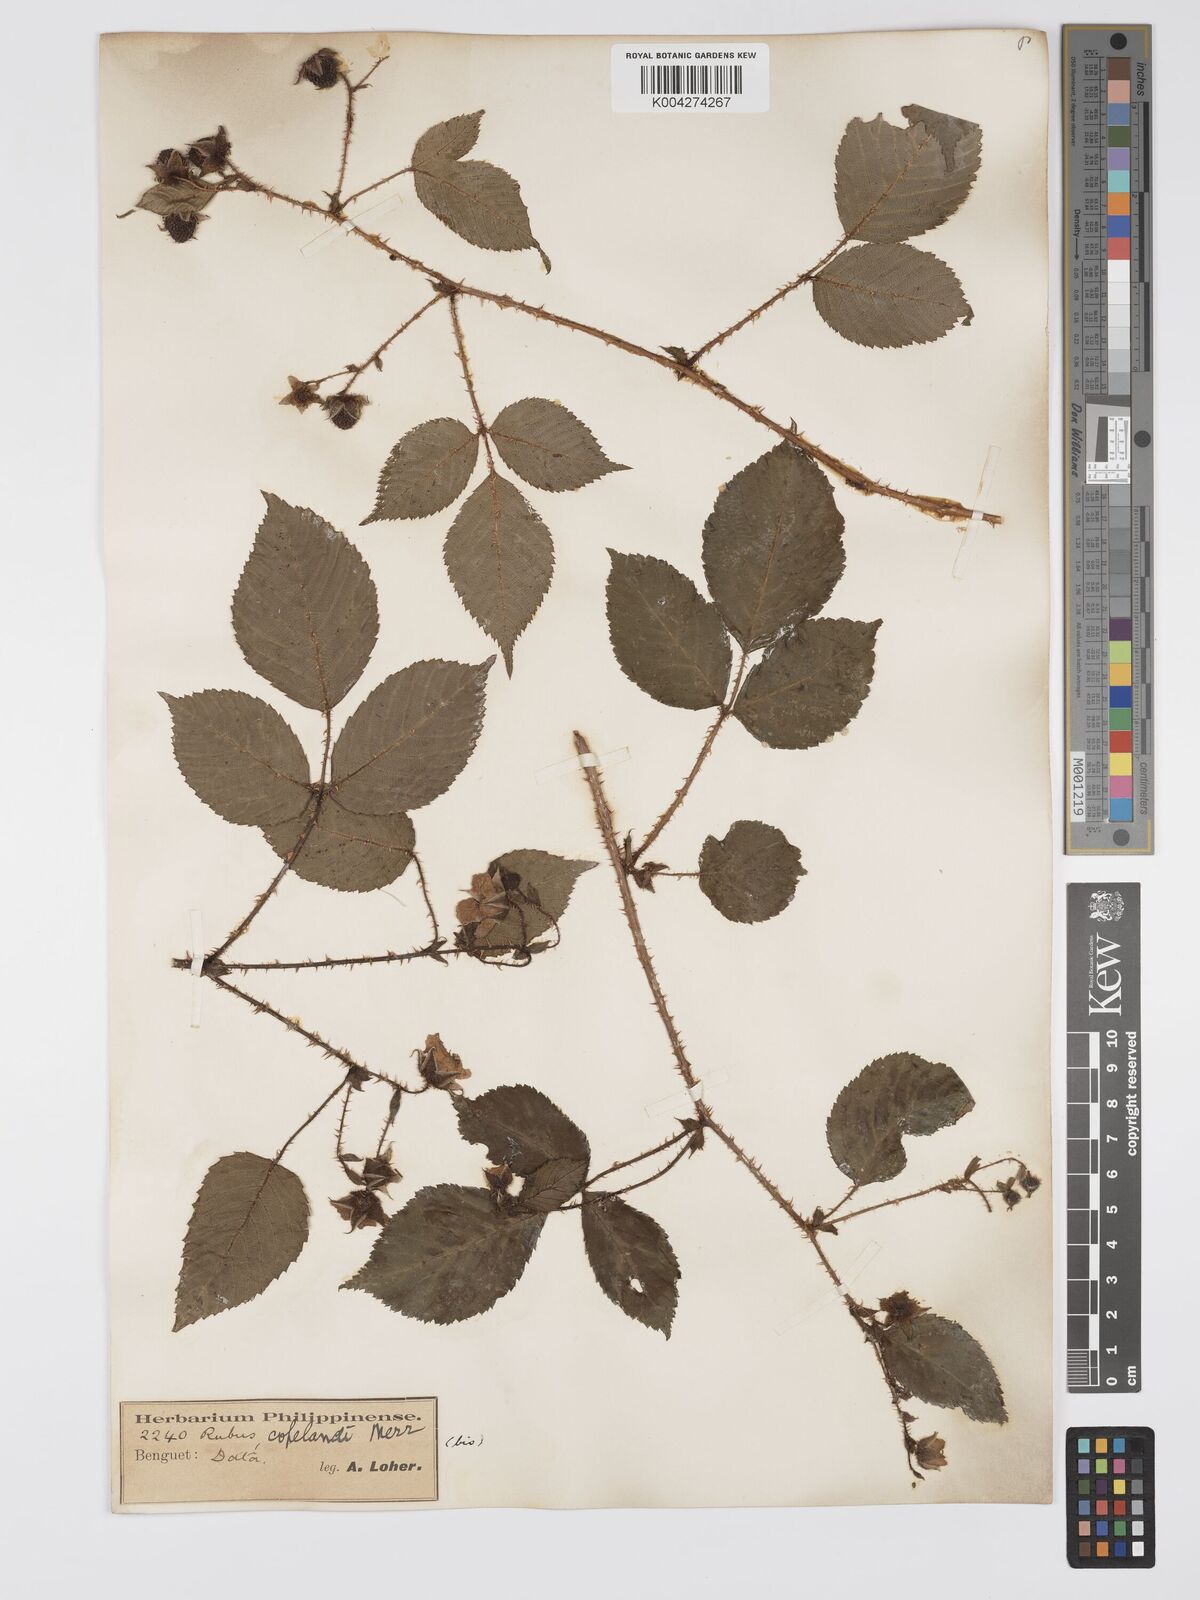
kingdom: Plantae
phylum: Tracheophyta
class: Magnoliopsida
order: Rosales
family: Rosaceae
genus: Rubus
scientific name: Rubus
